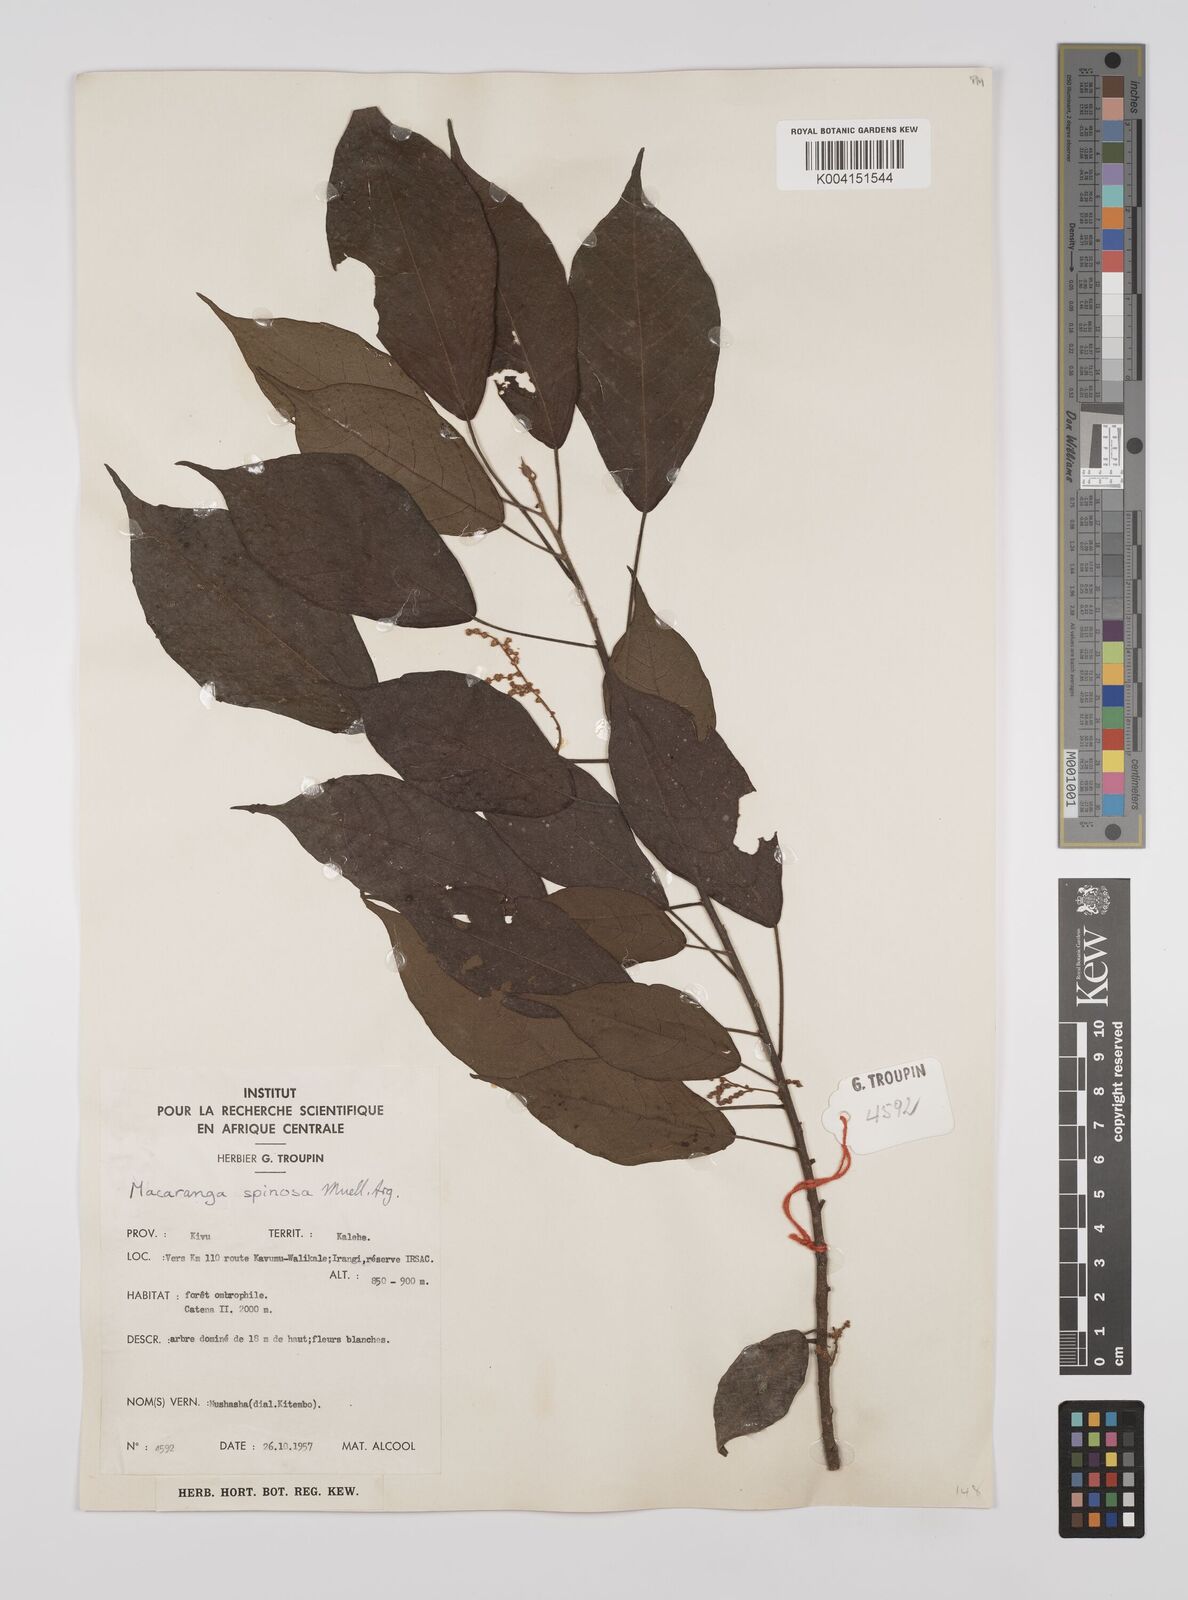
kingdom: Plantae
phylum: Tracheophyta
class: Magnoliopsida
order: Malpighiales
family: Euphorbiaceae
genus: Macaranga
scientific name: Macaranga spinosa
